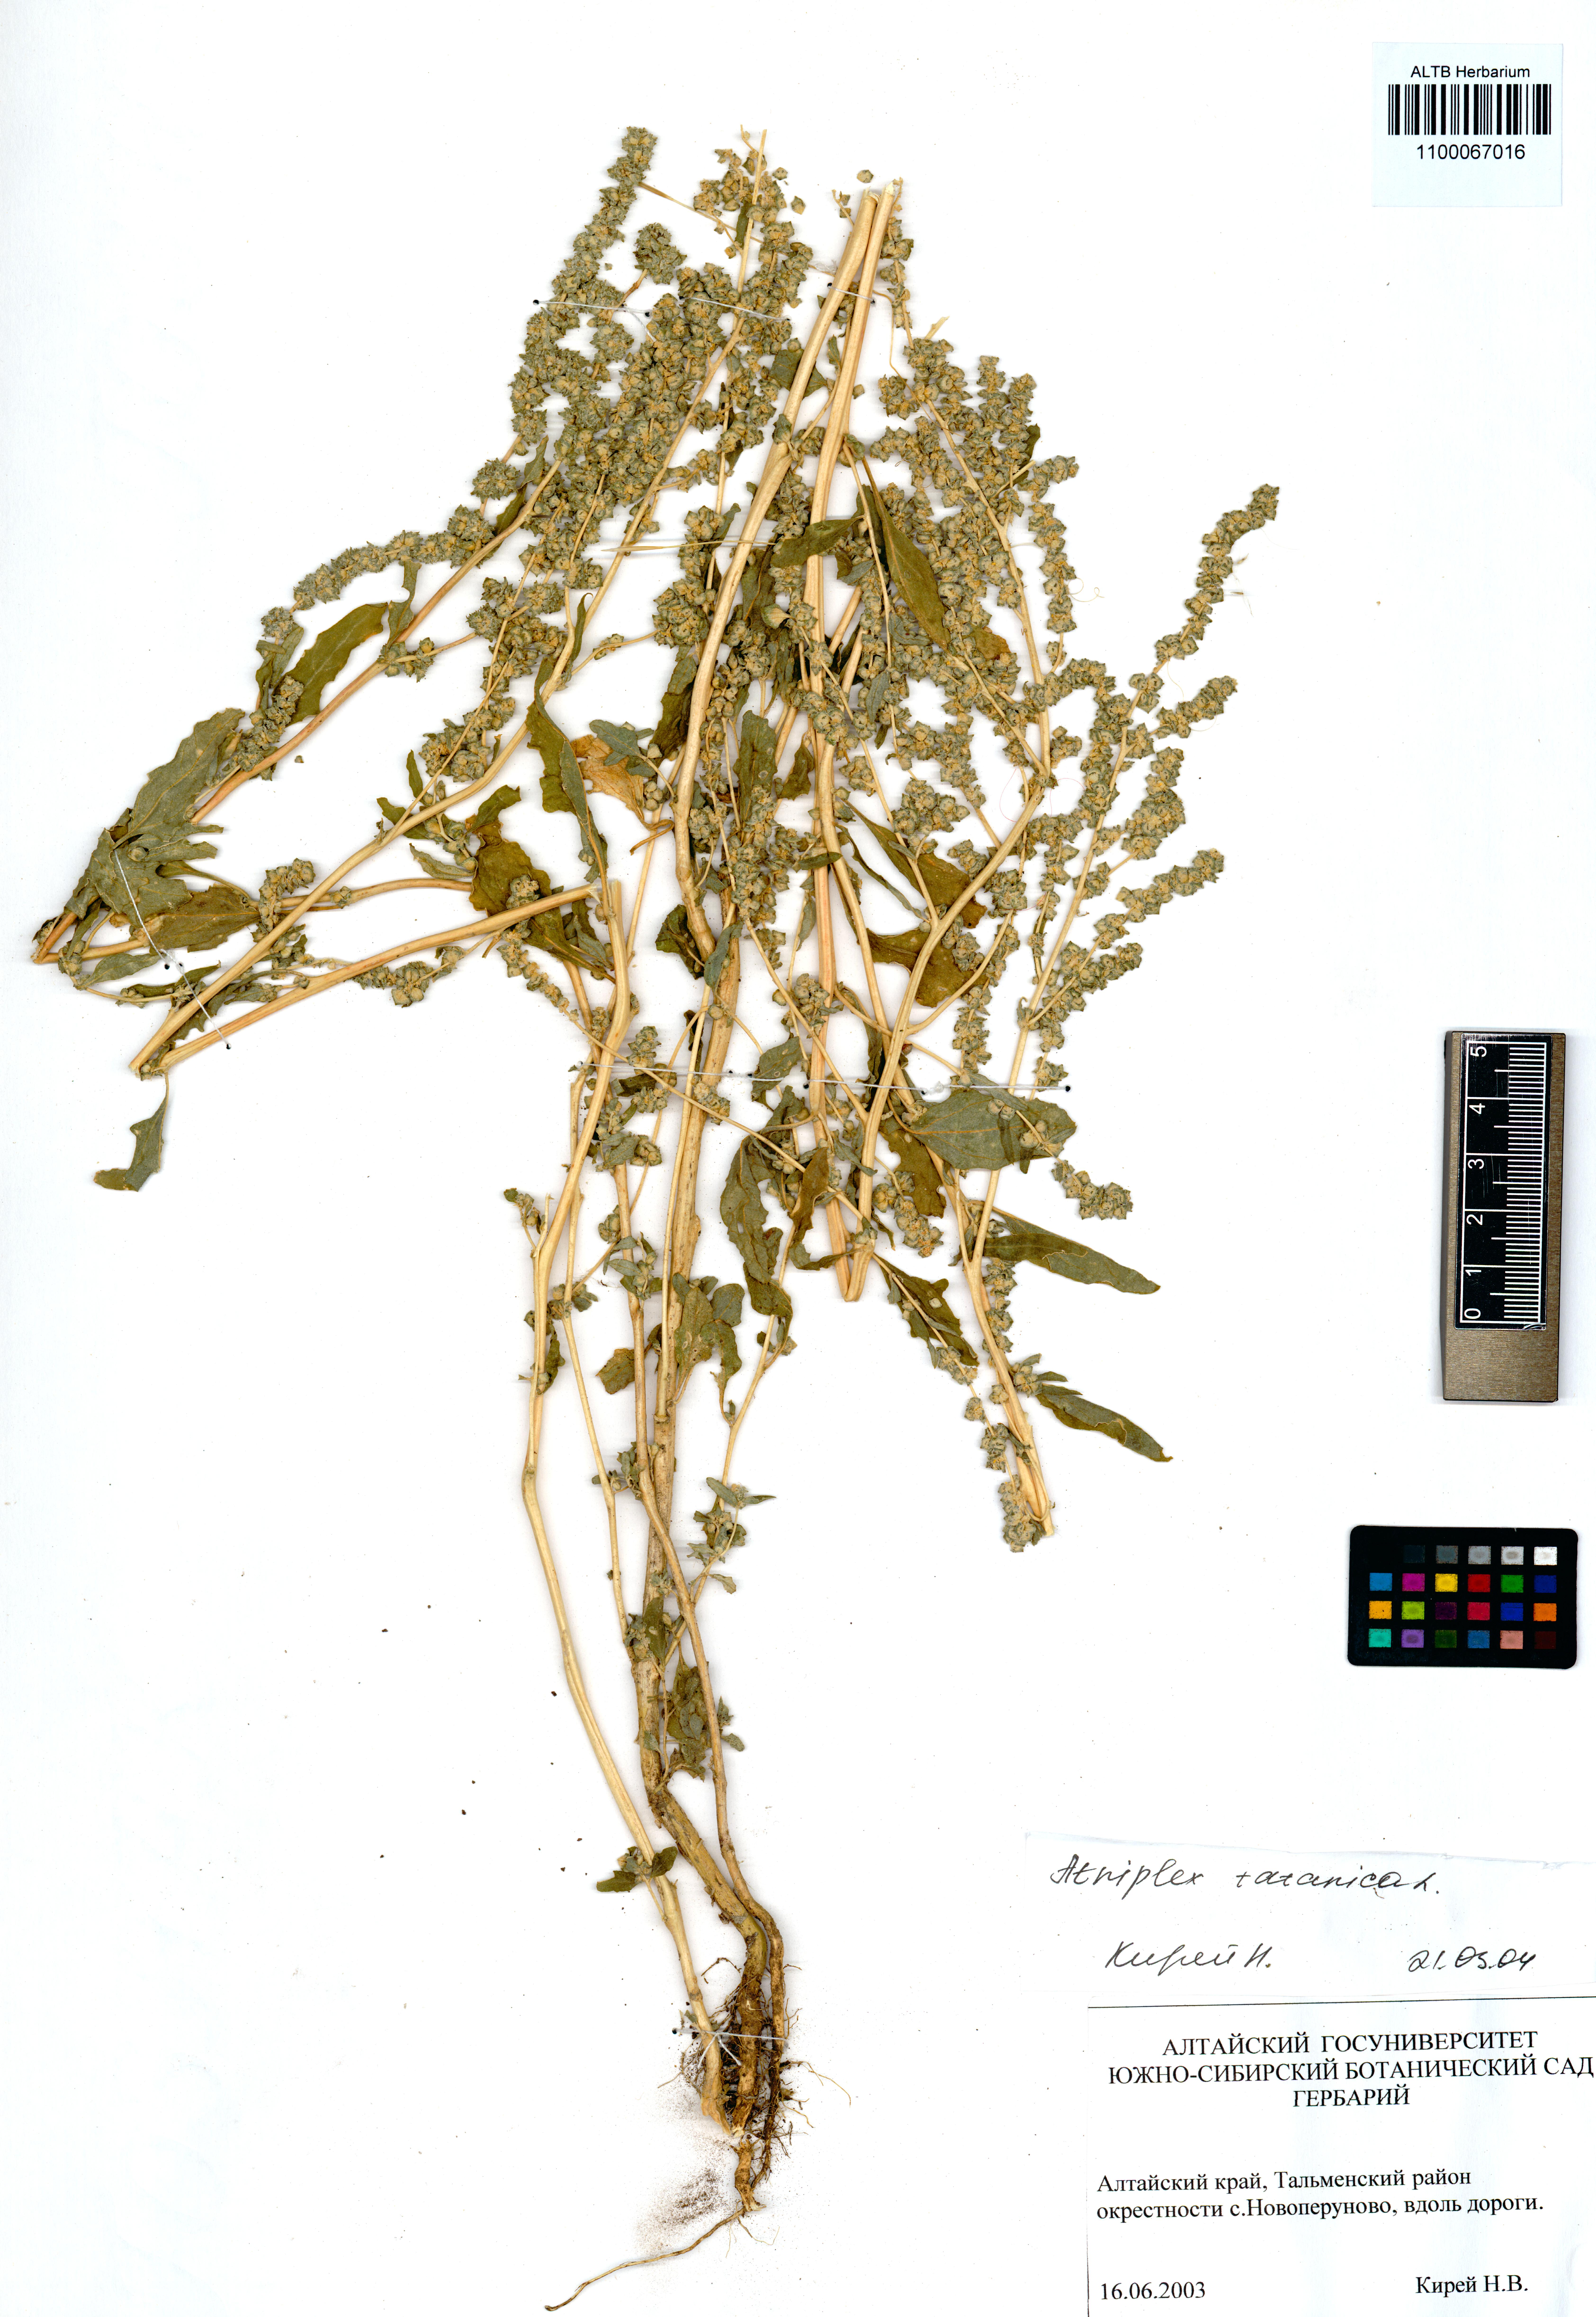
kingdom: Plantae
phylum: Tracheophyta
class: Magnoliopsida
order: Caryophyllales
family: Amaranthaceae
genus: Atriplex
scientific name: Atriplex tatarica
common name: Tatarian orache
